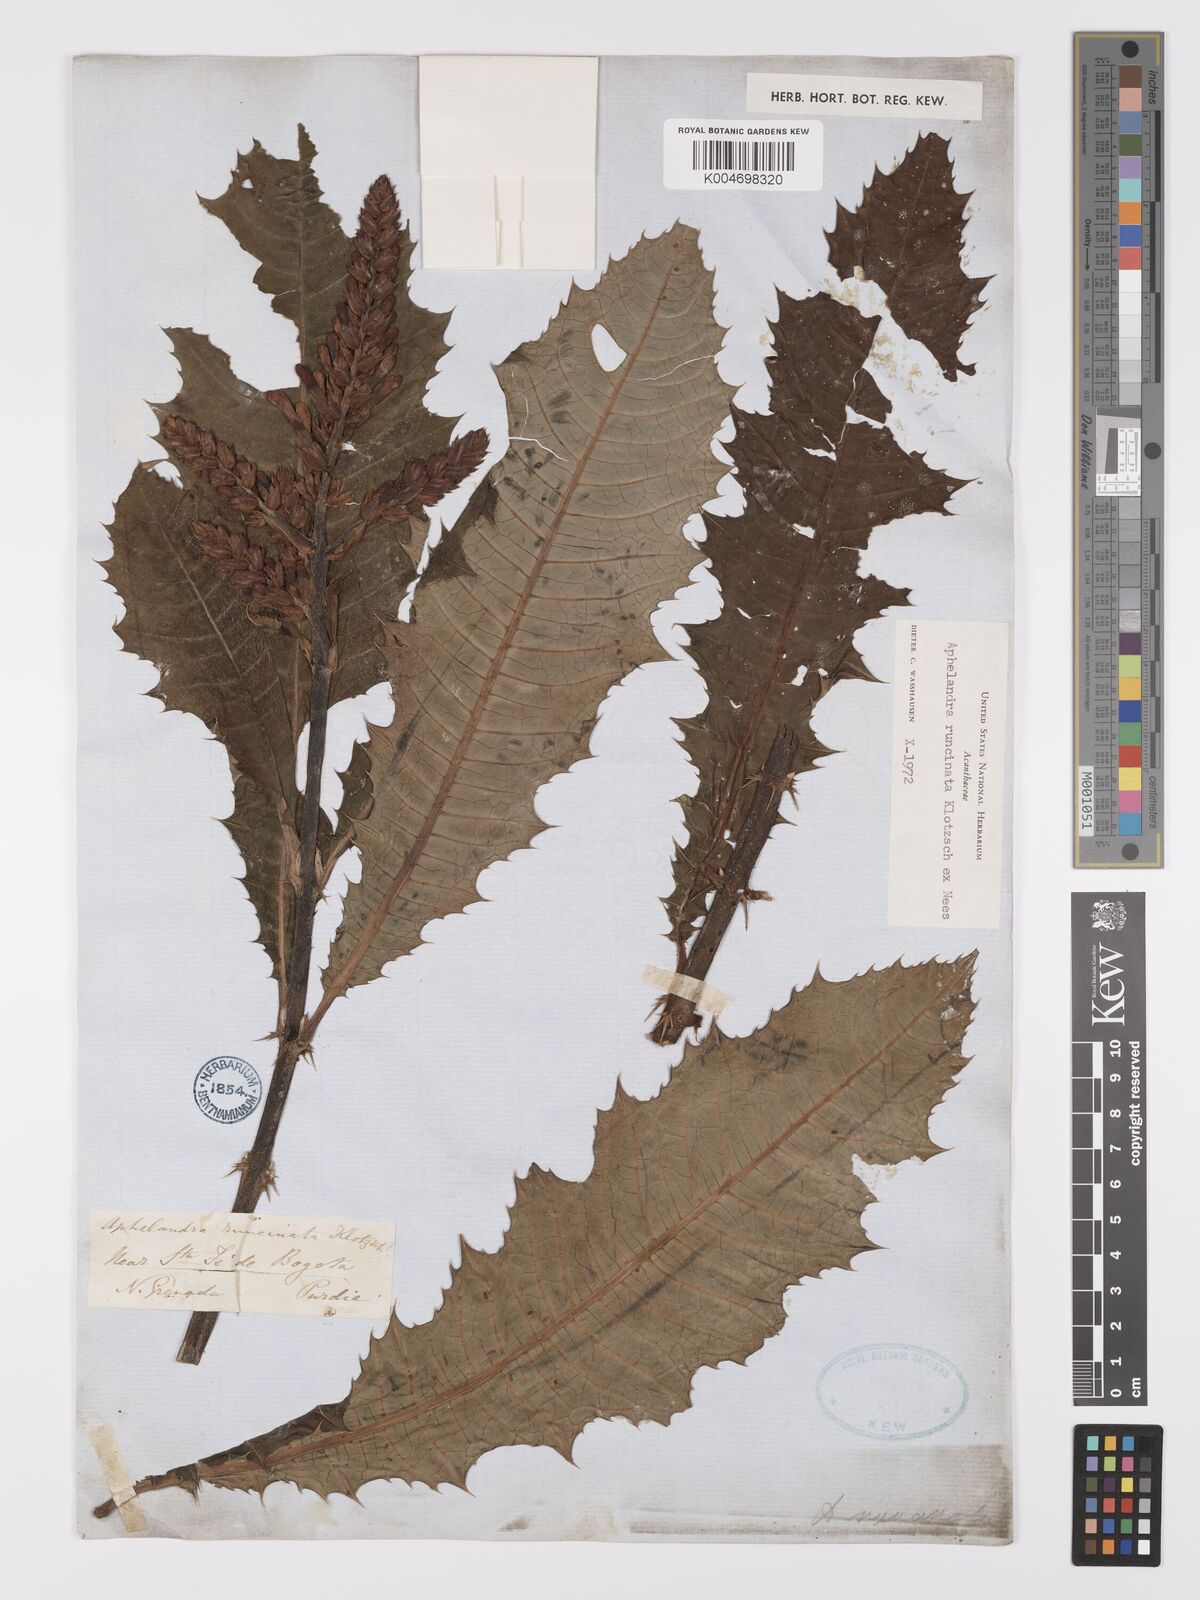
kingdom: Plantae
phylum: Tracheophyta
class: Magnoliopsida
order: Lamiales
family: Acanthaceae
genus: Aphelandra
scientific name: Aphelandra runcinata
